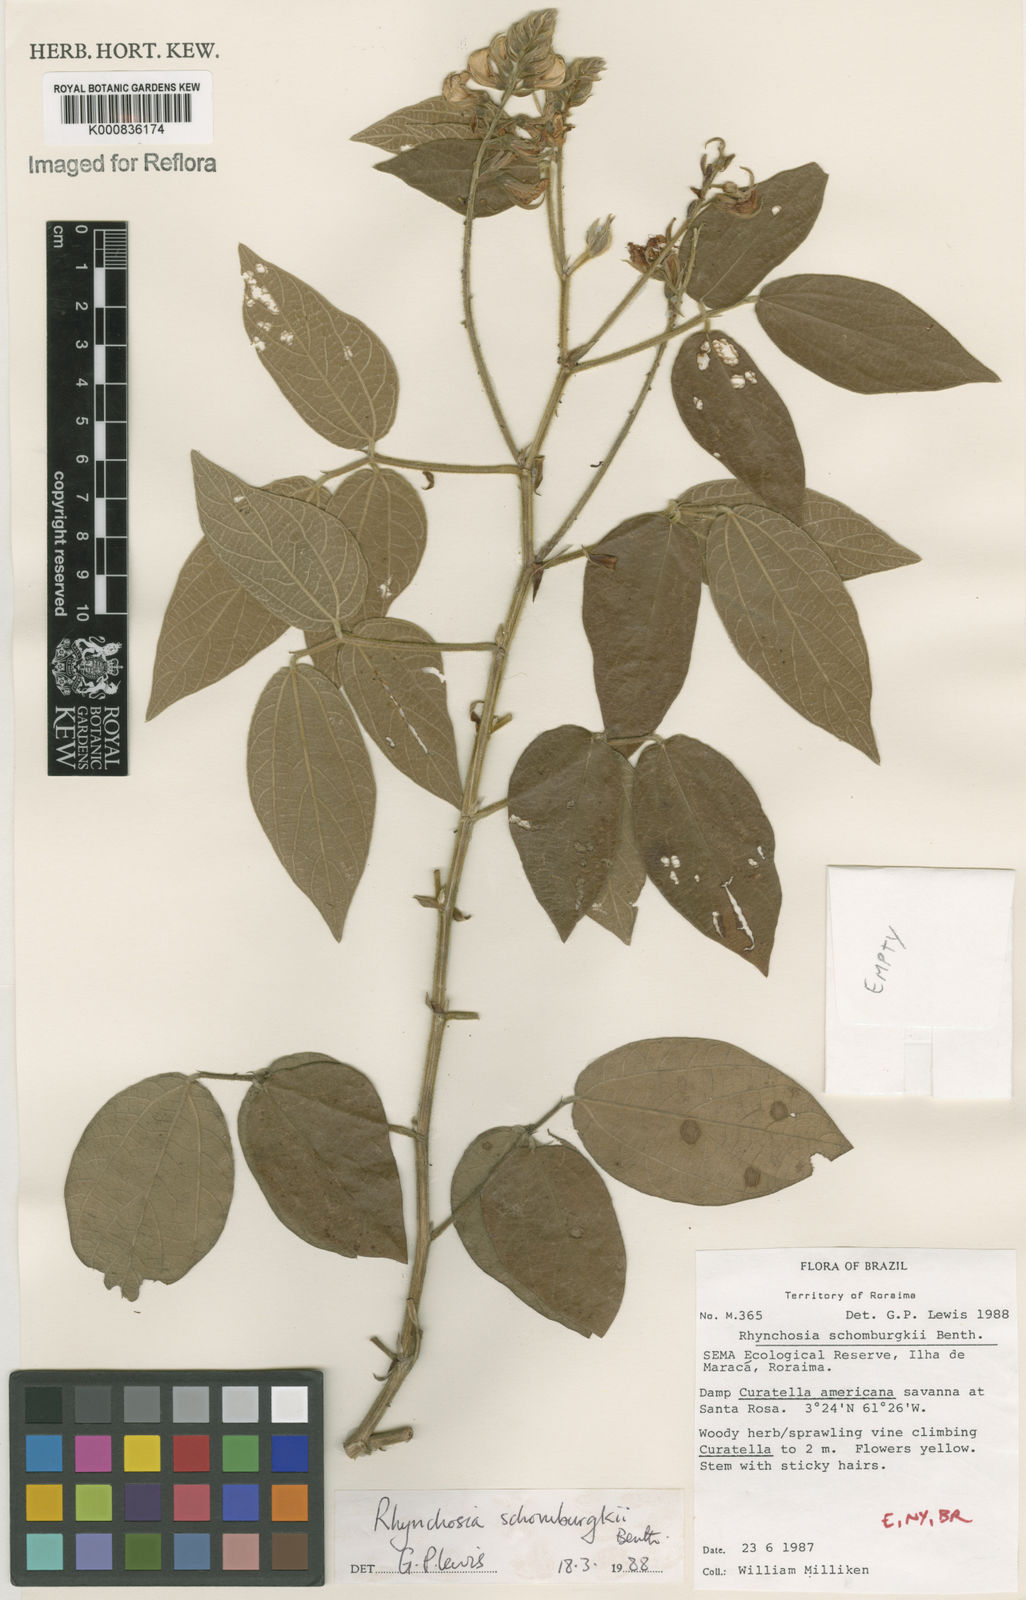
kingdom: Plantae
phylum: Tracheophyta
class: Magnoliopsida
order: Fabales
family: Fabaceae
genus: Rhynchosia
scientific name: Rhynchosia schomburgkii
